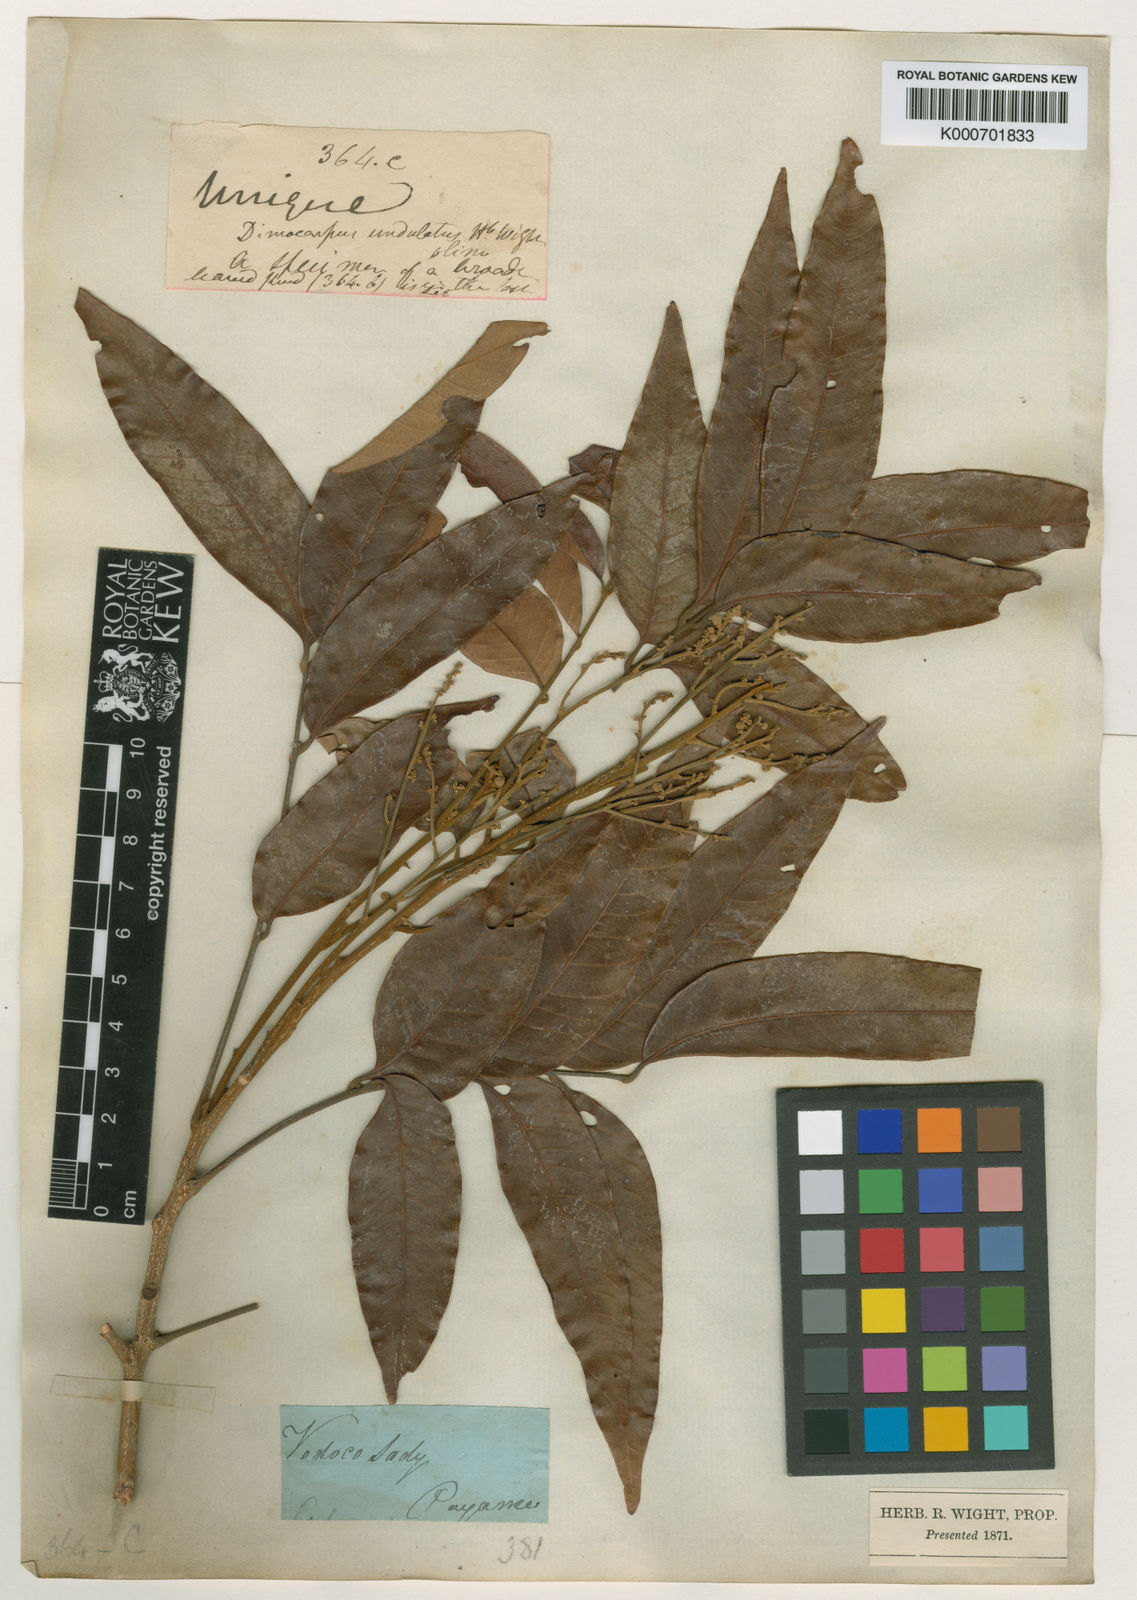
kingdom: Plantae
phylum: Tracheophyta
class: Magnoliopsida
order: Sapindales
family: Sapindaceae
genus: Dimocarpus
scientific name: Dimocarpus longan
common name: Longan
